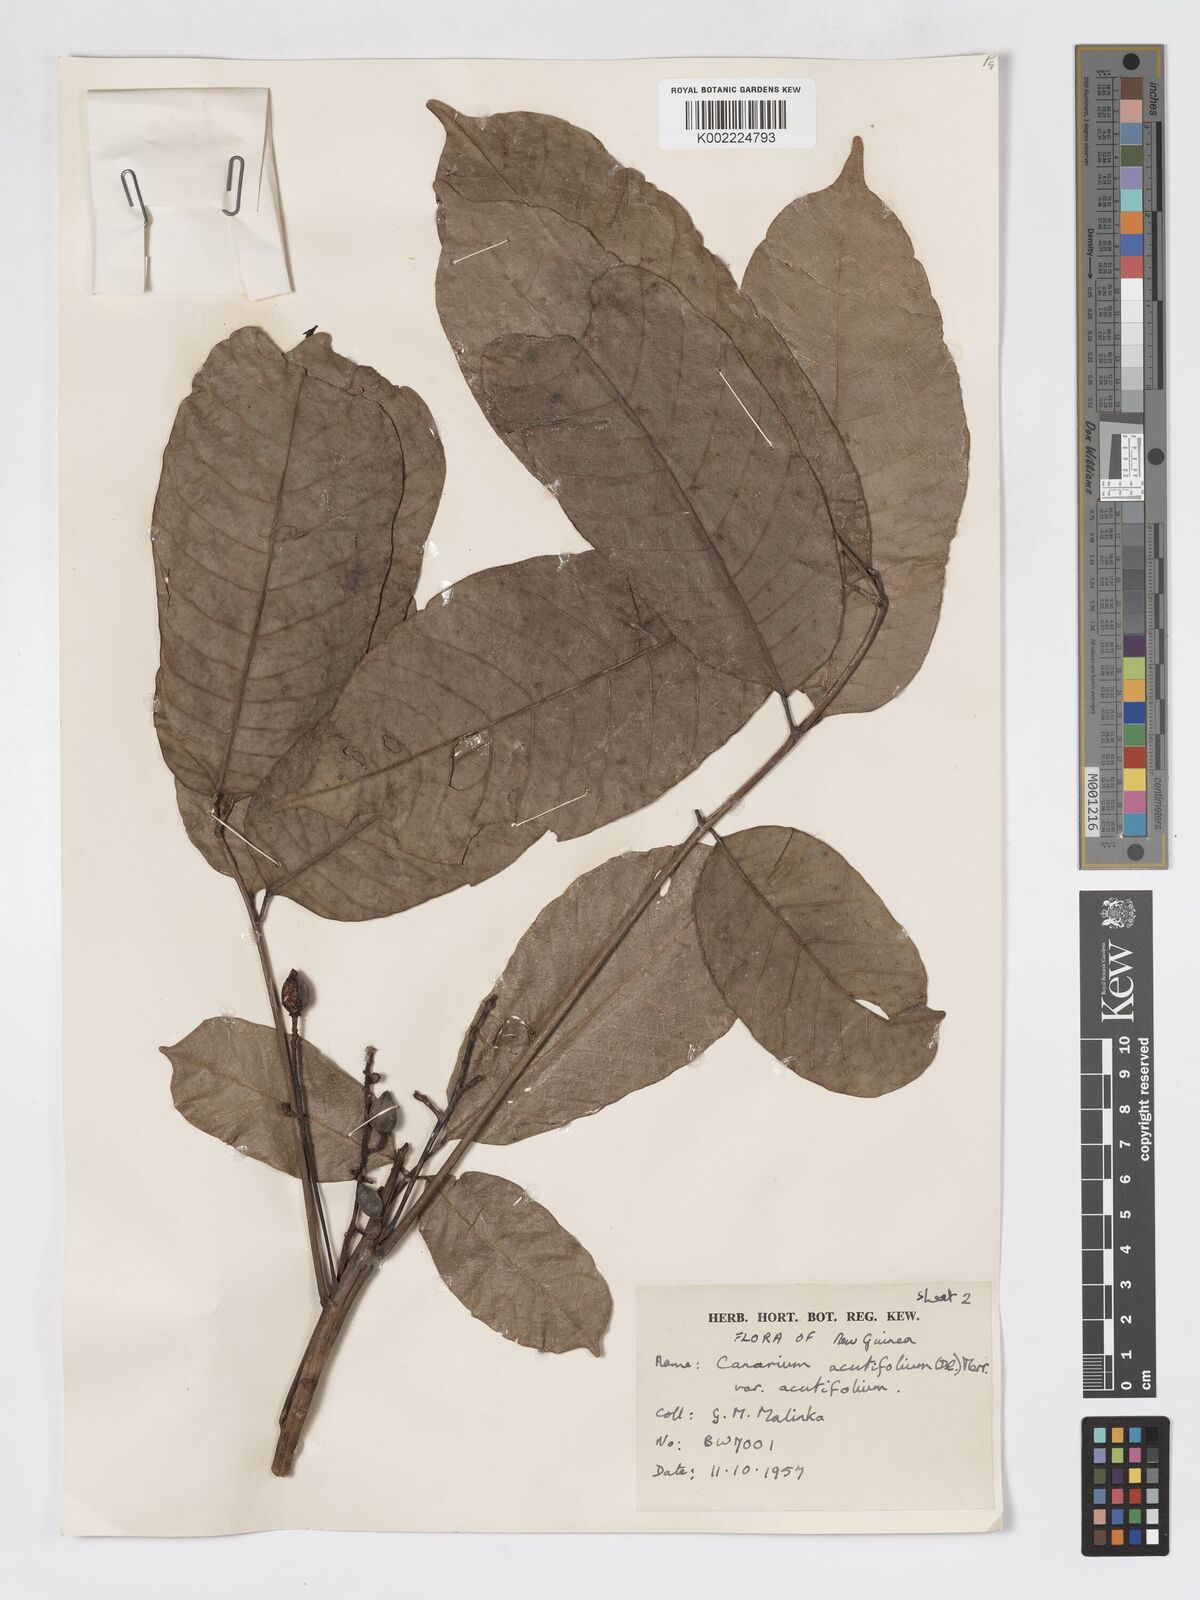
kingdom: Plantae
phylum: Tracheophyta
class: Magnoliopsida
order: Sapindales
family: Burseraceae
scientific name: Burseraceae
